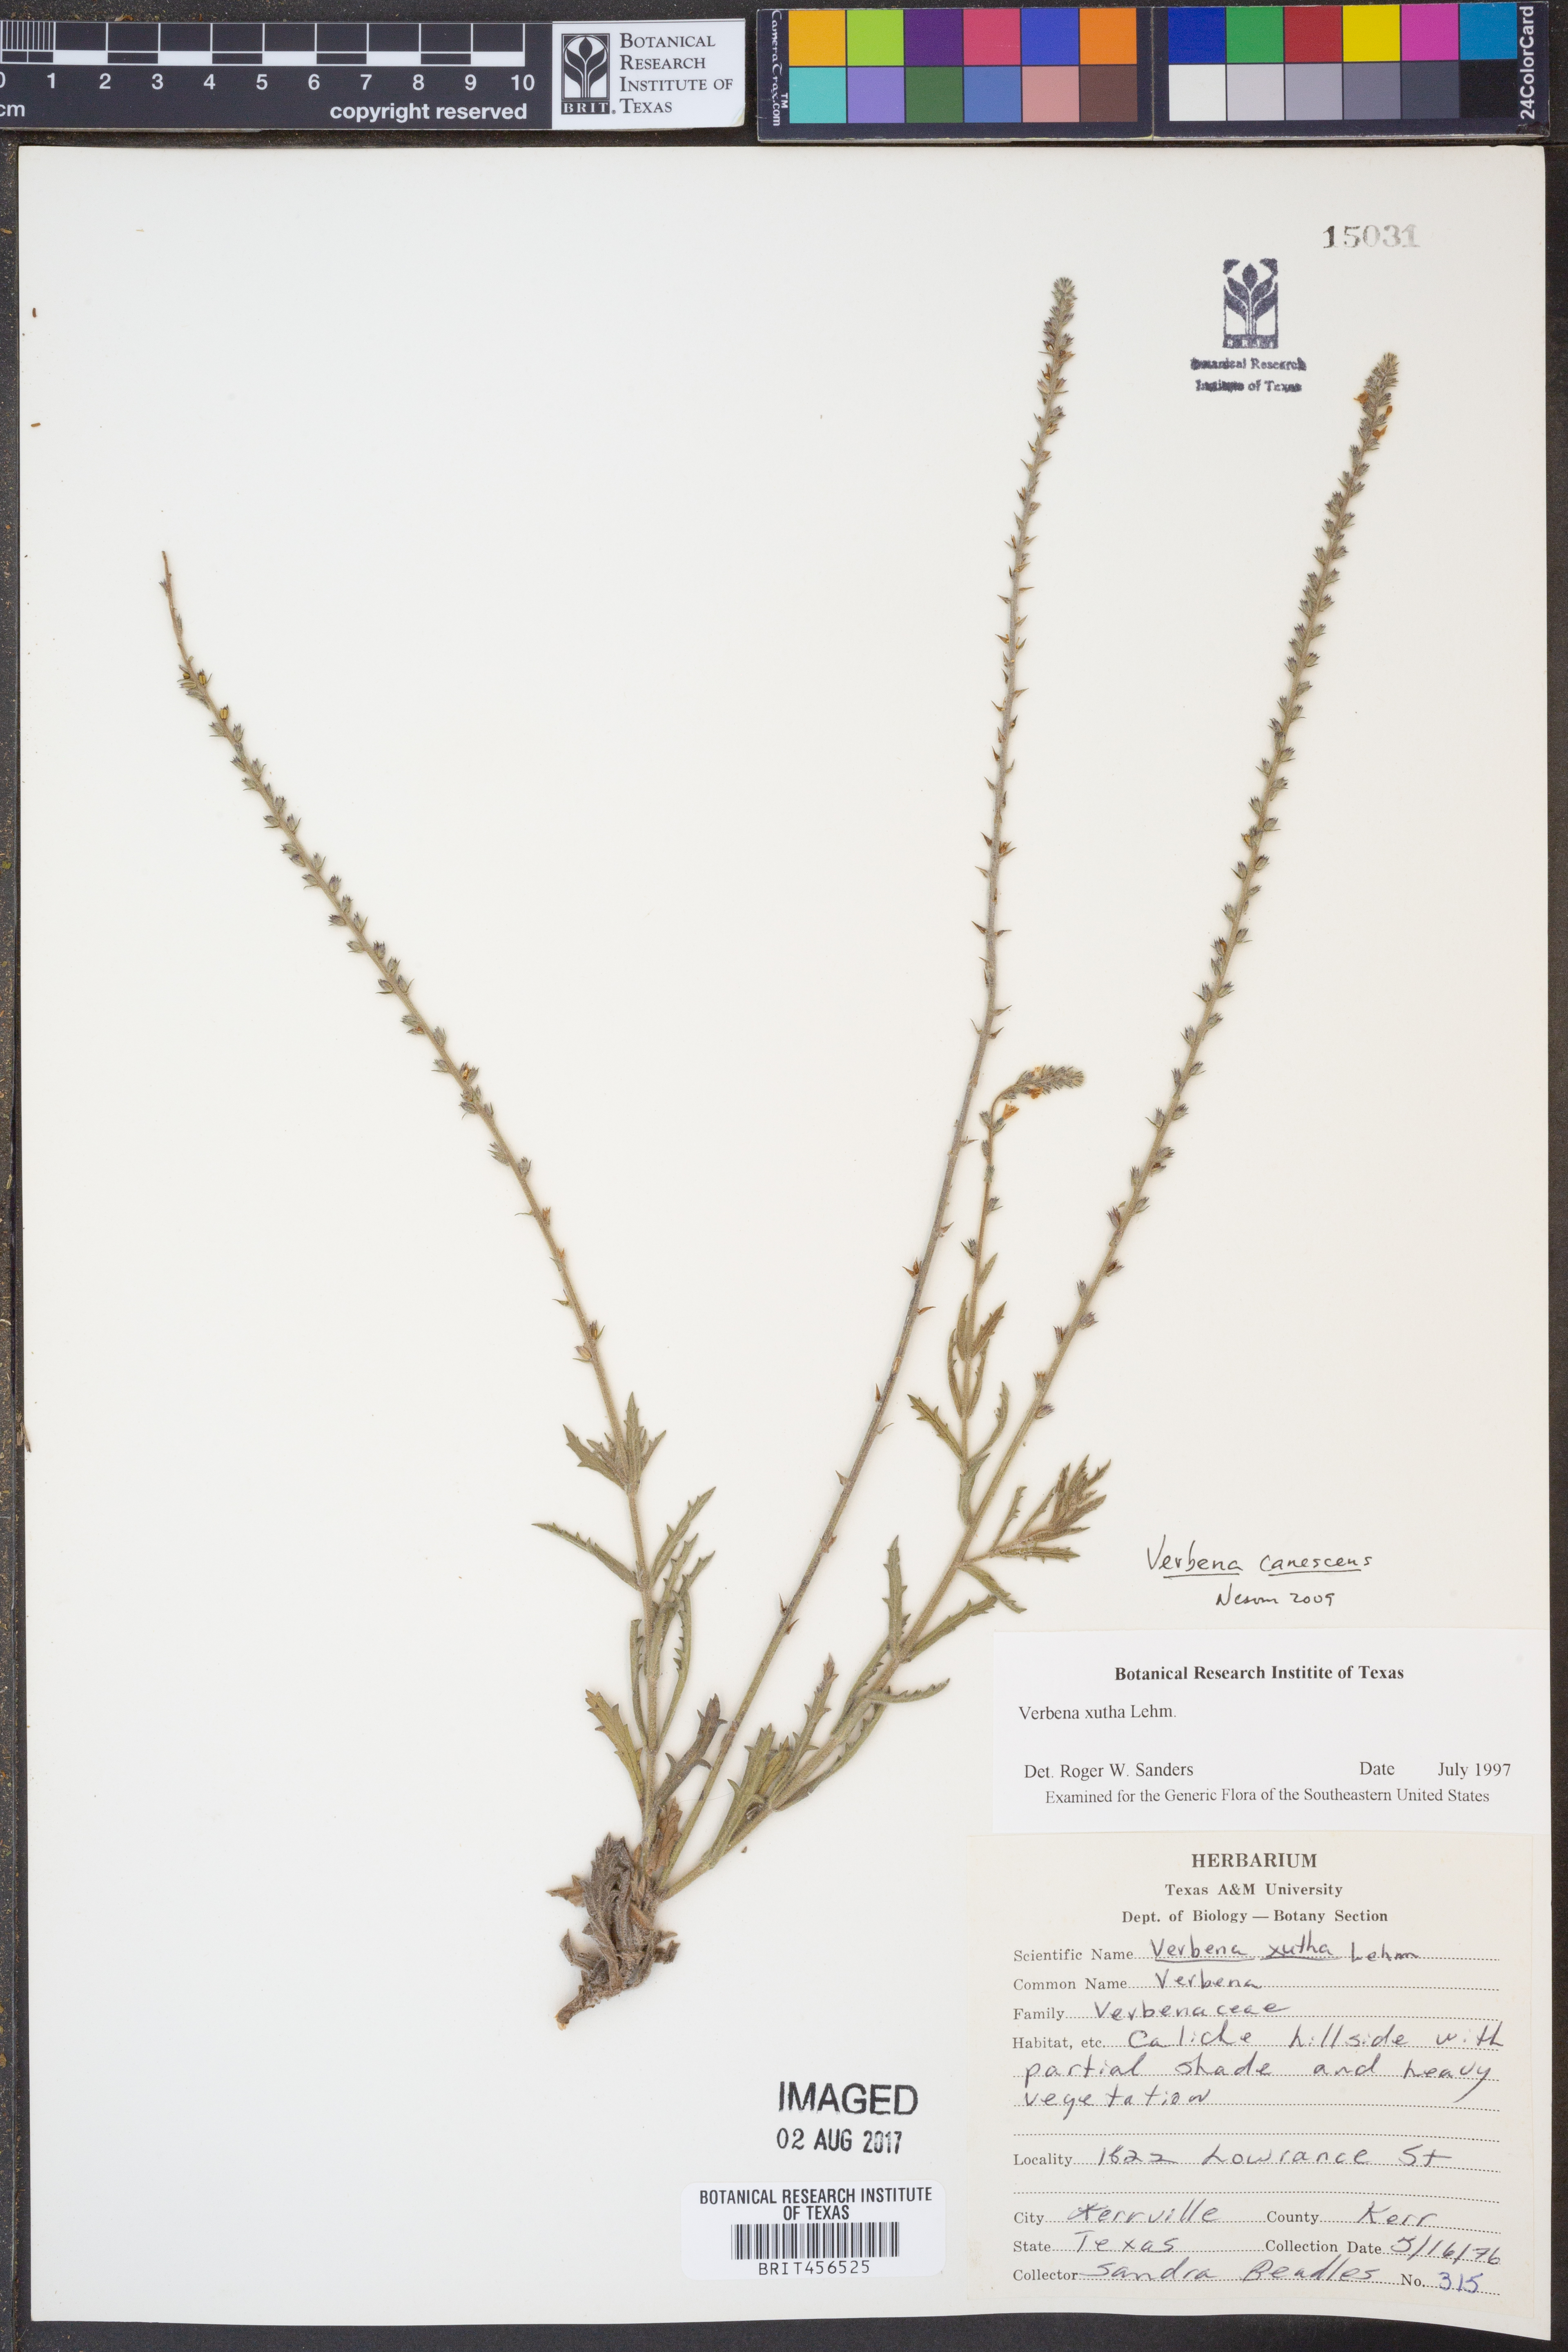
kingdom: Plantae
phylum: Tracheophyta
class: Magnoliopsida
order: Lamiales
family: Verbenaceae
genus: Verbena
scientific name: Verbena canescens
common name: Gray vervain
